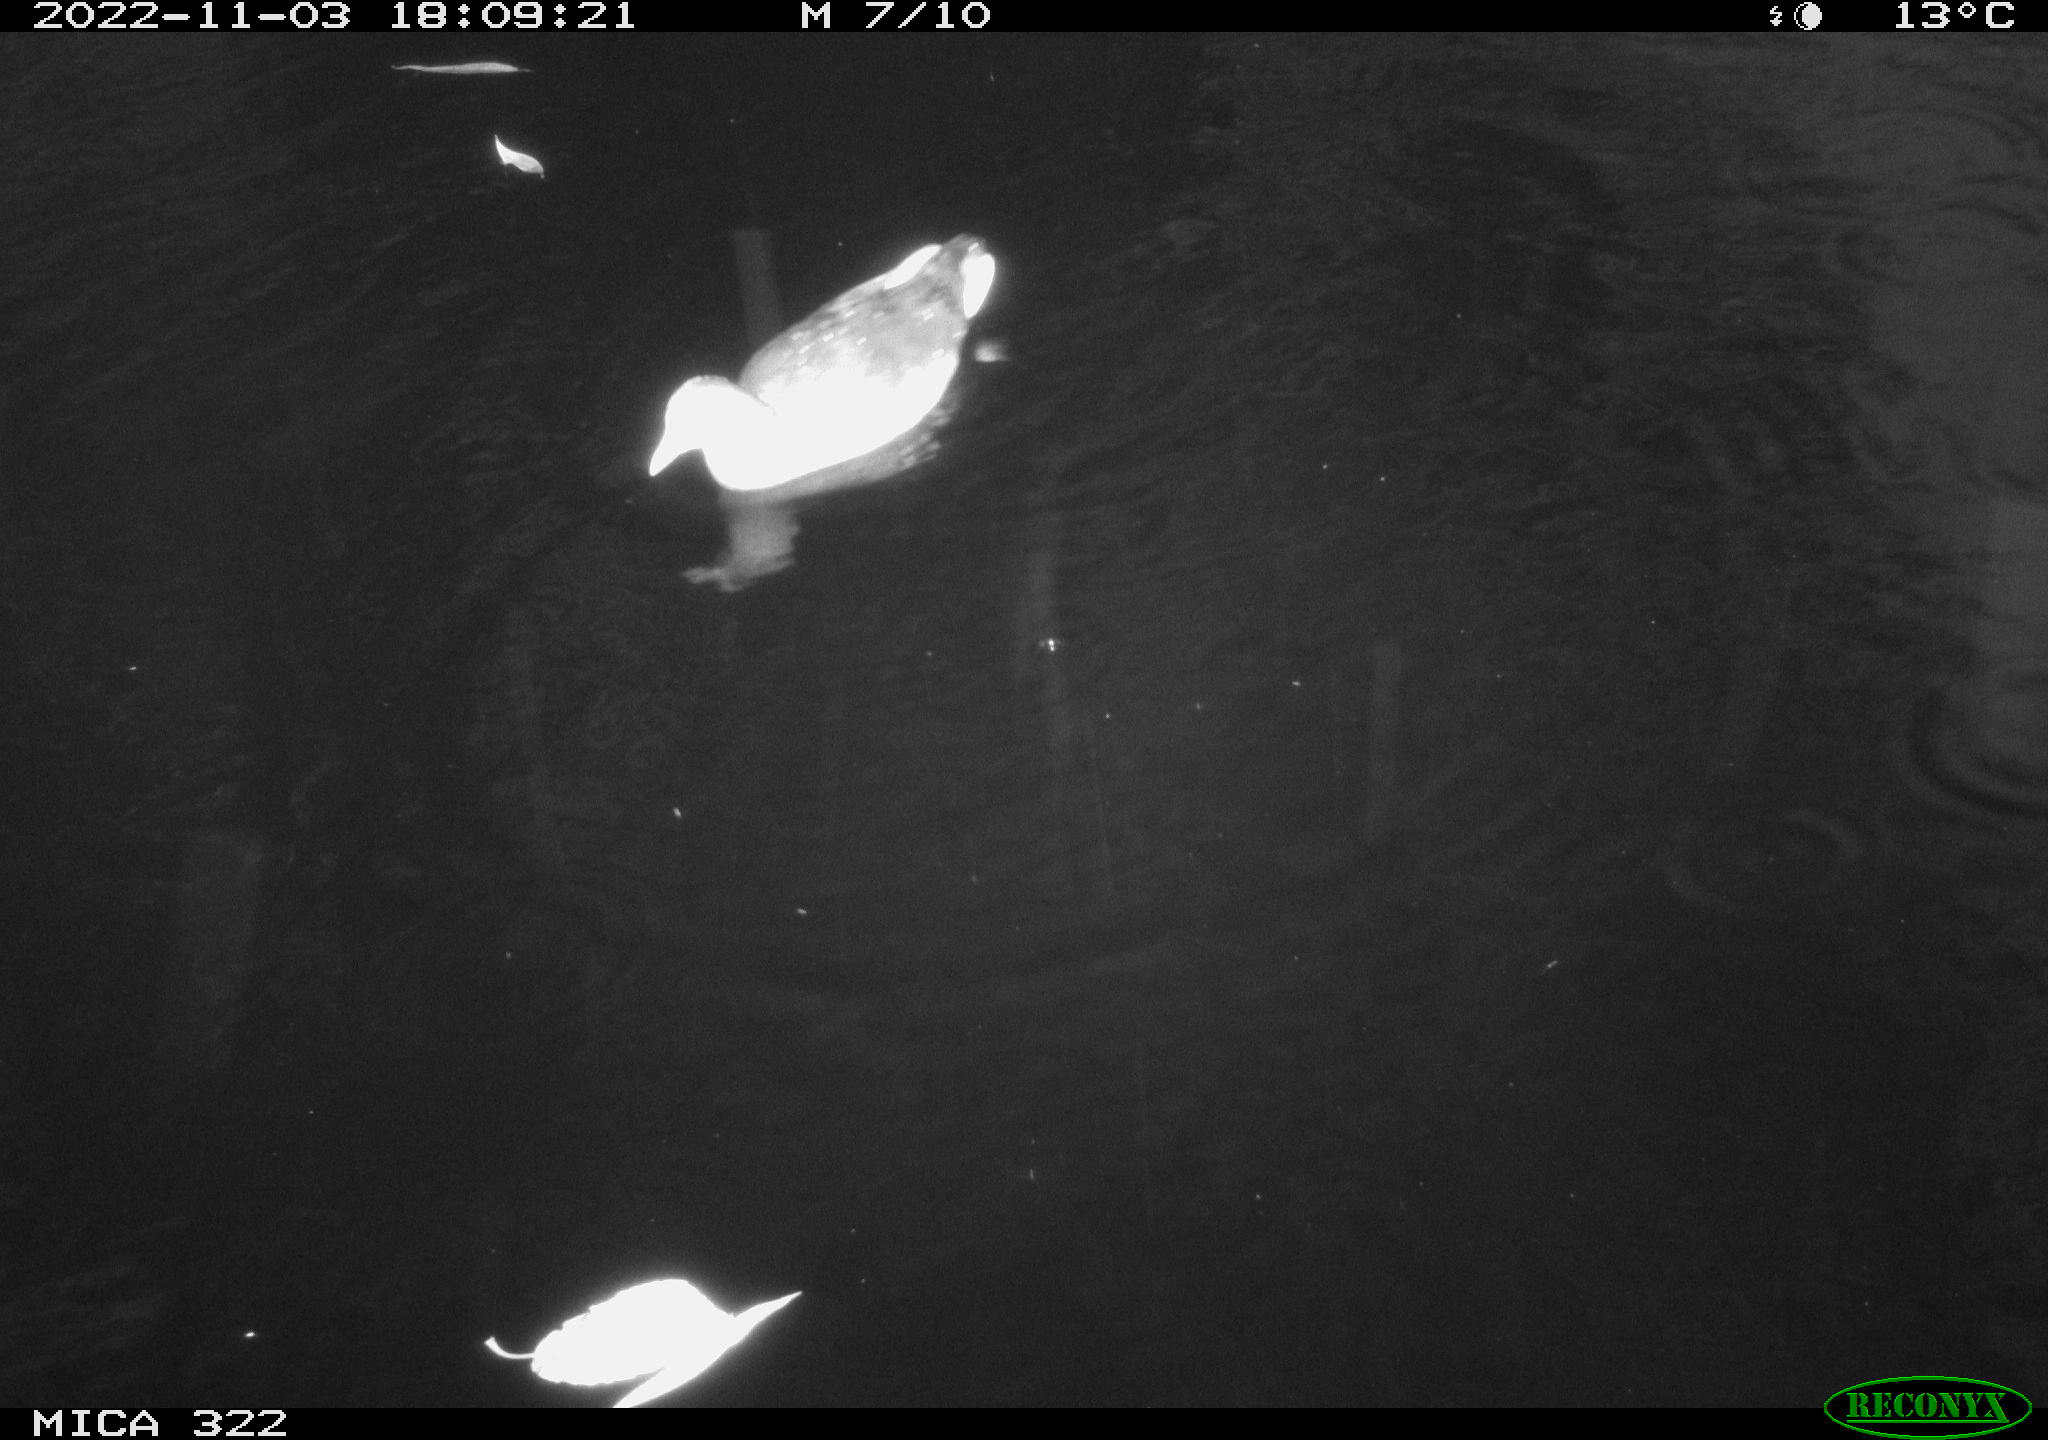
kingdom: Animalia
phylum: Chordata
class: Aves
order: Pelecaniformes
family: Ardeidae
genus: Ardea
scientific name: Ardea cinerea
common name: Grey heron
